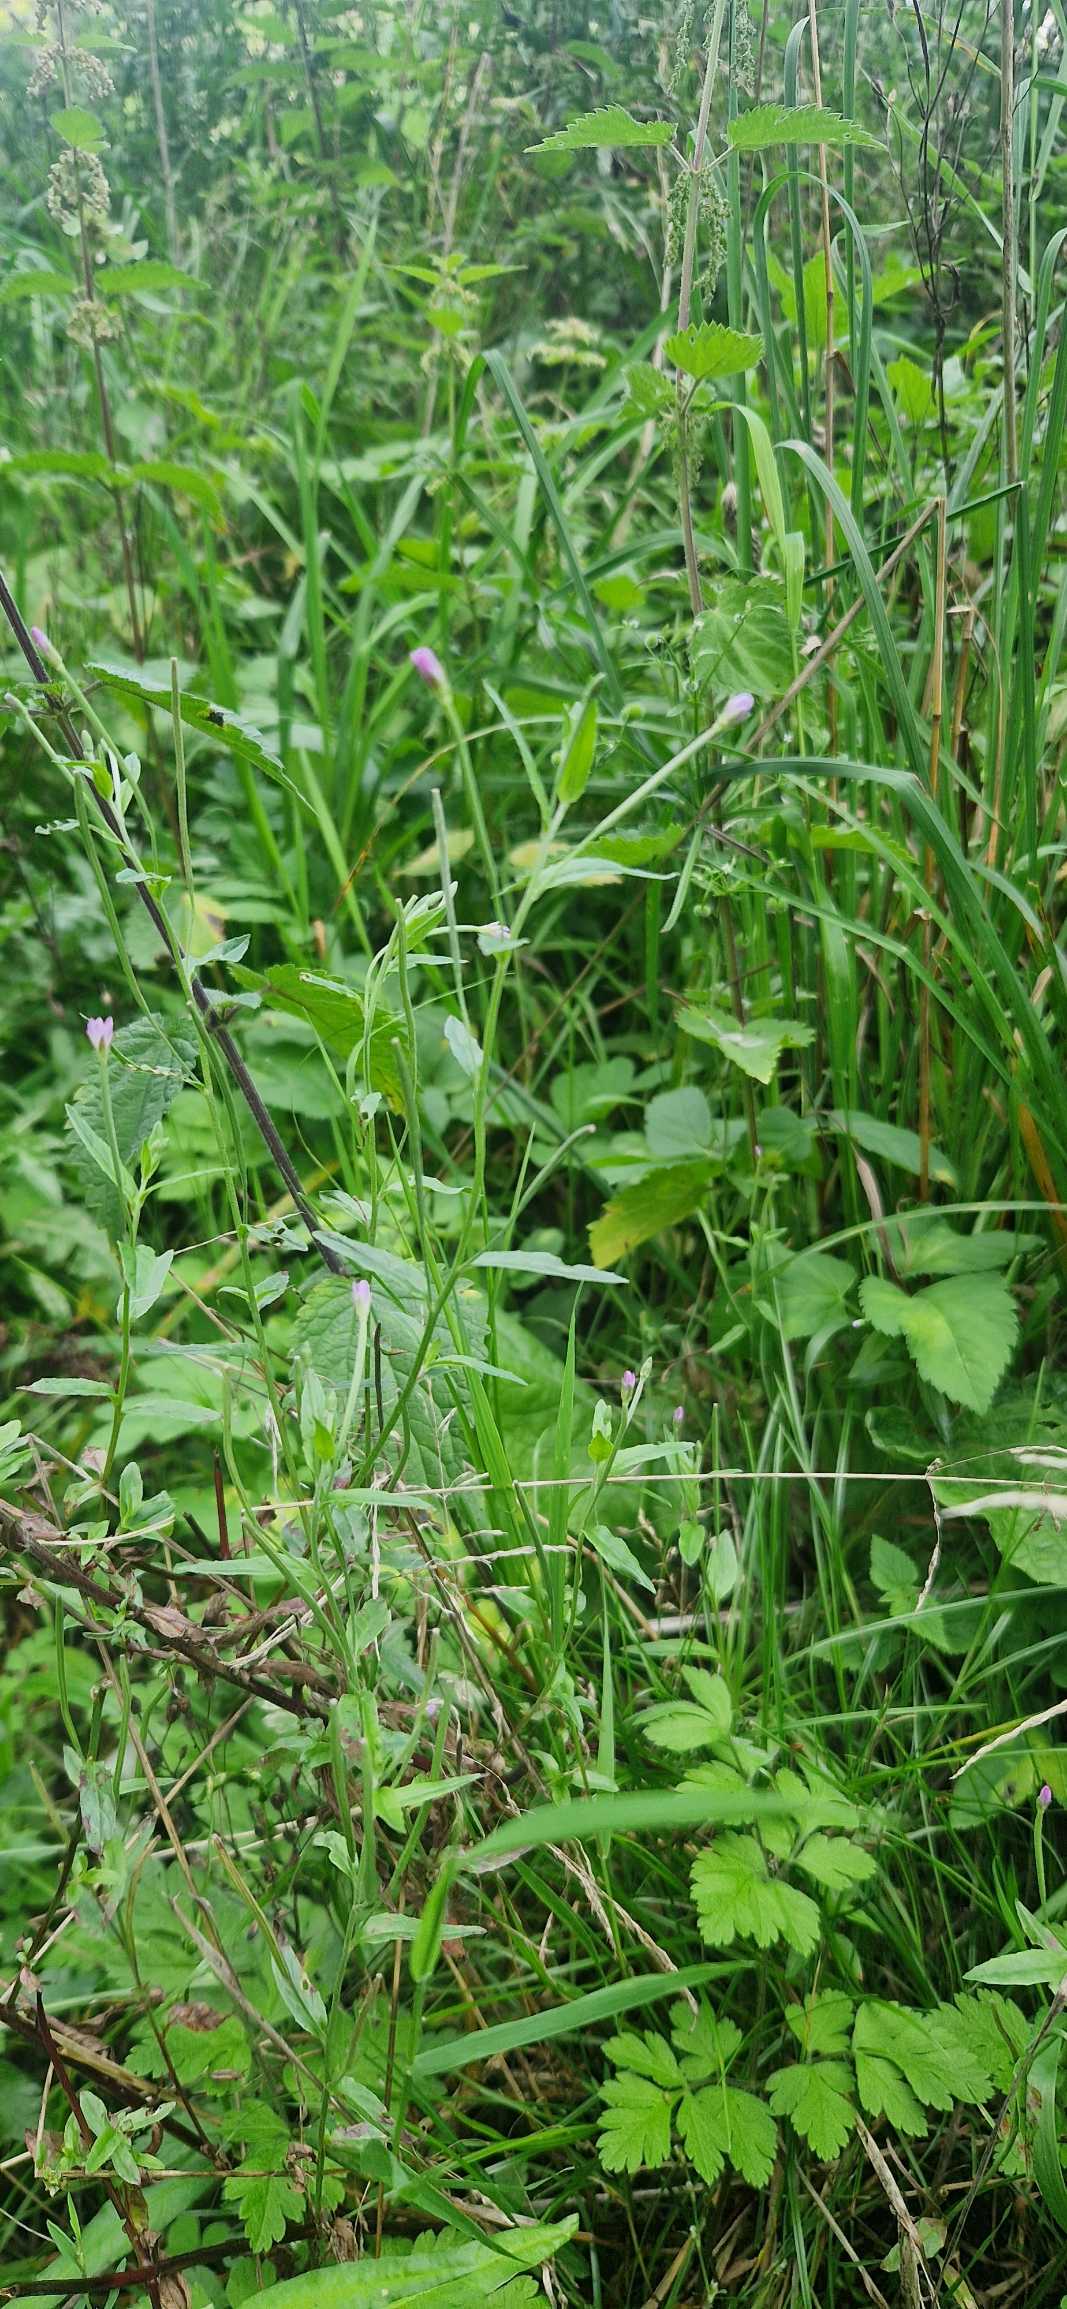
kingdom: Plantae
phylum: Tracheophyta
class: Magnoliopsida
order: Myrtales
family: Onagraceae
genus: Epilobium
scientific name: Epilobium obscurum
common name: Ris-dueurt
